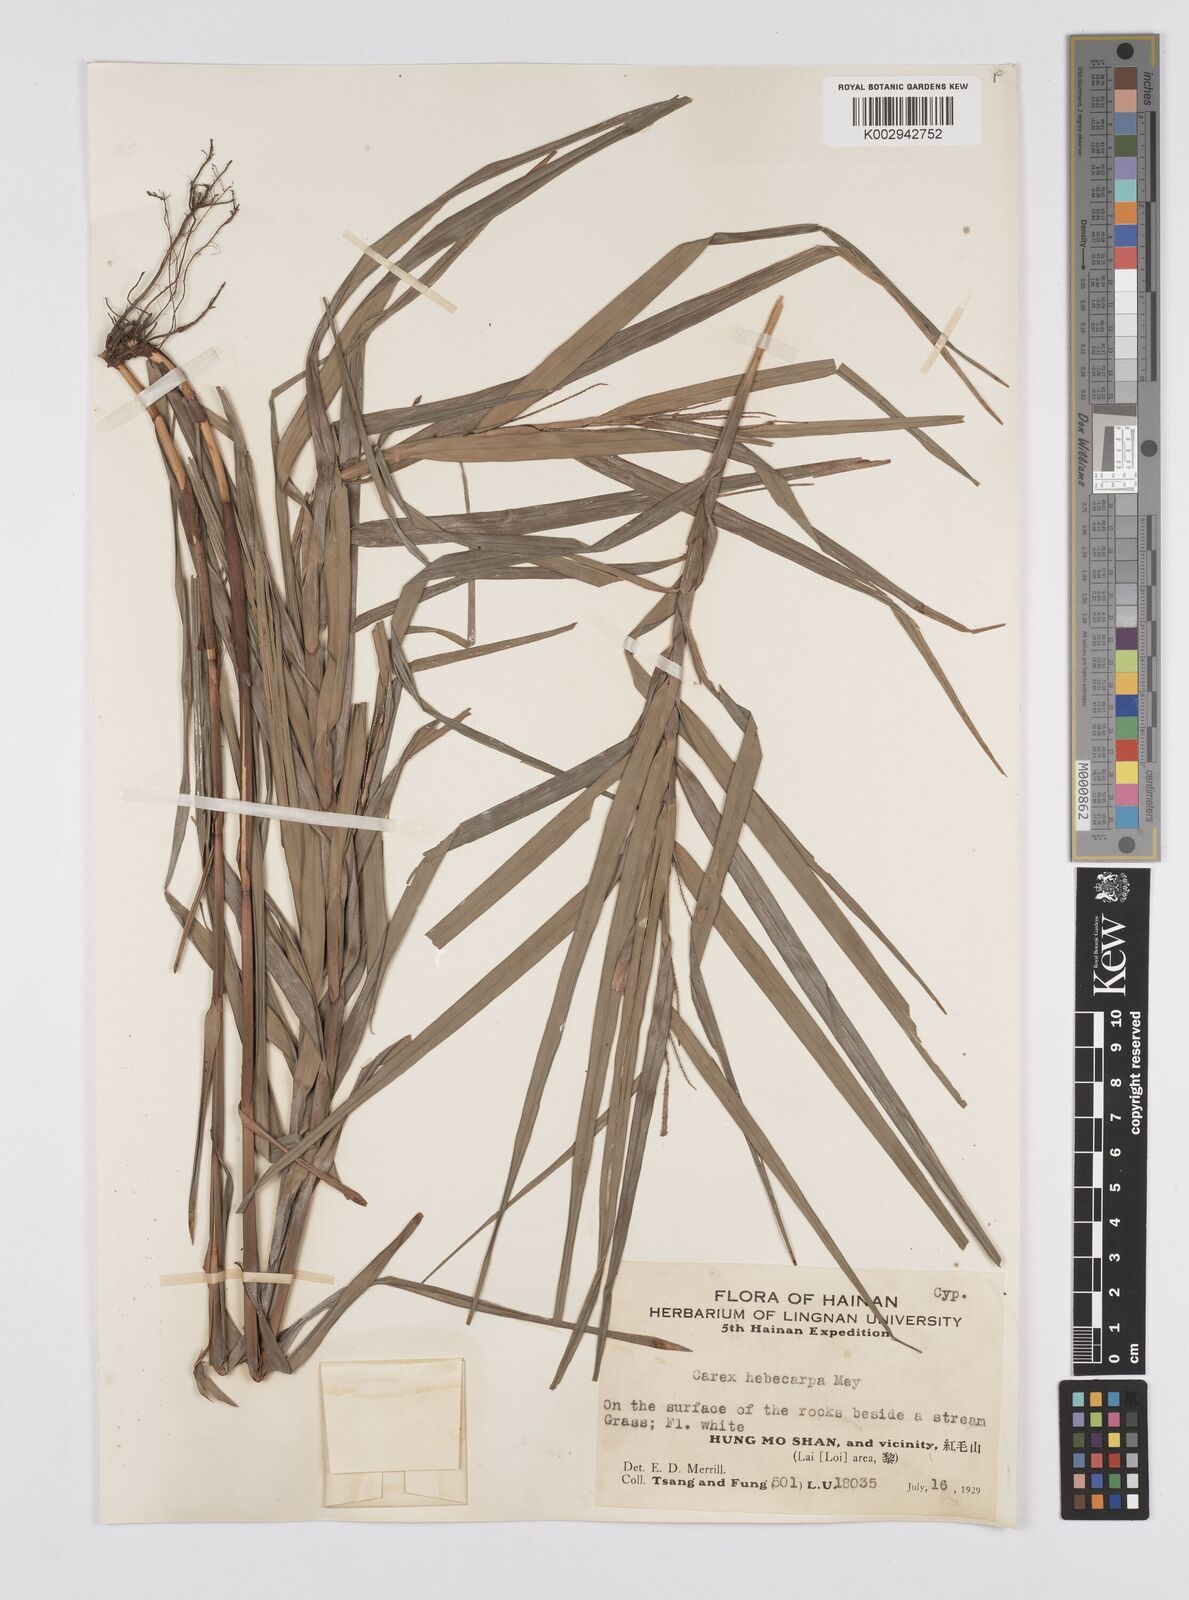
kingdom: Plantae
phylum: Tracheophyta
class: Liliopsida
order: Poales
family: Cyperaceae
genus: Carex
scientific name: Carex maubertiana
